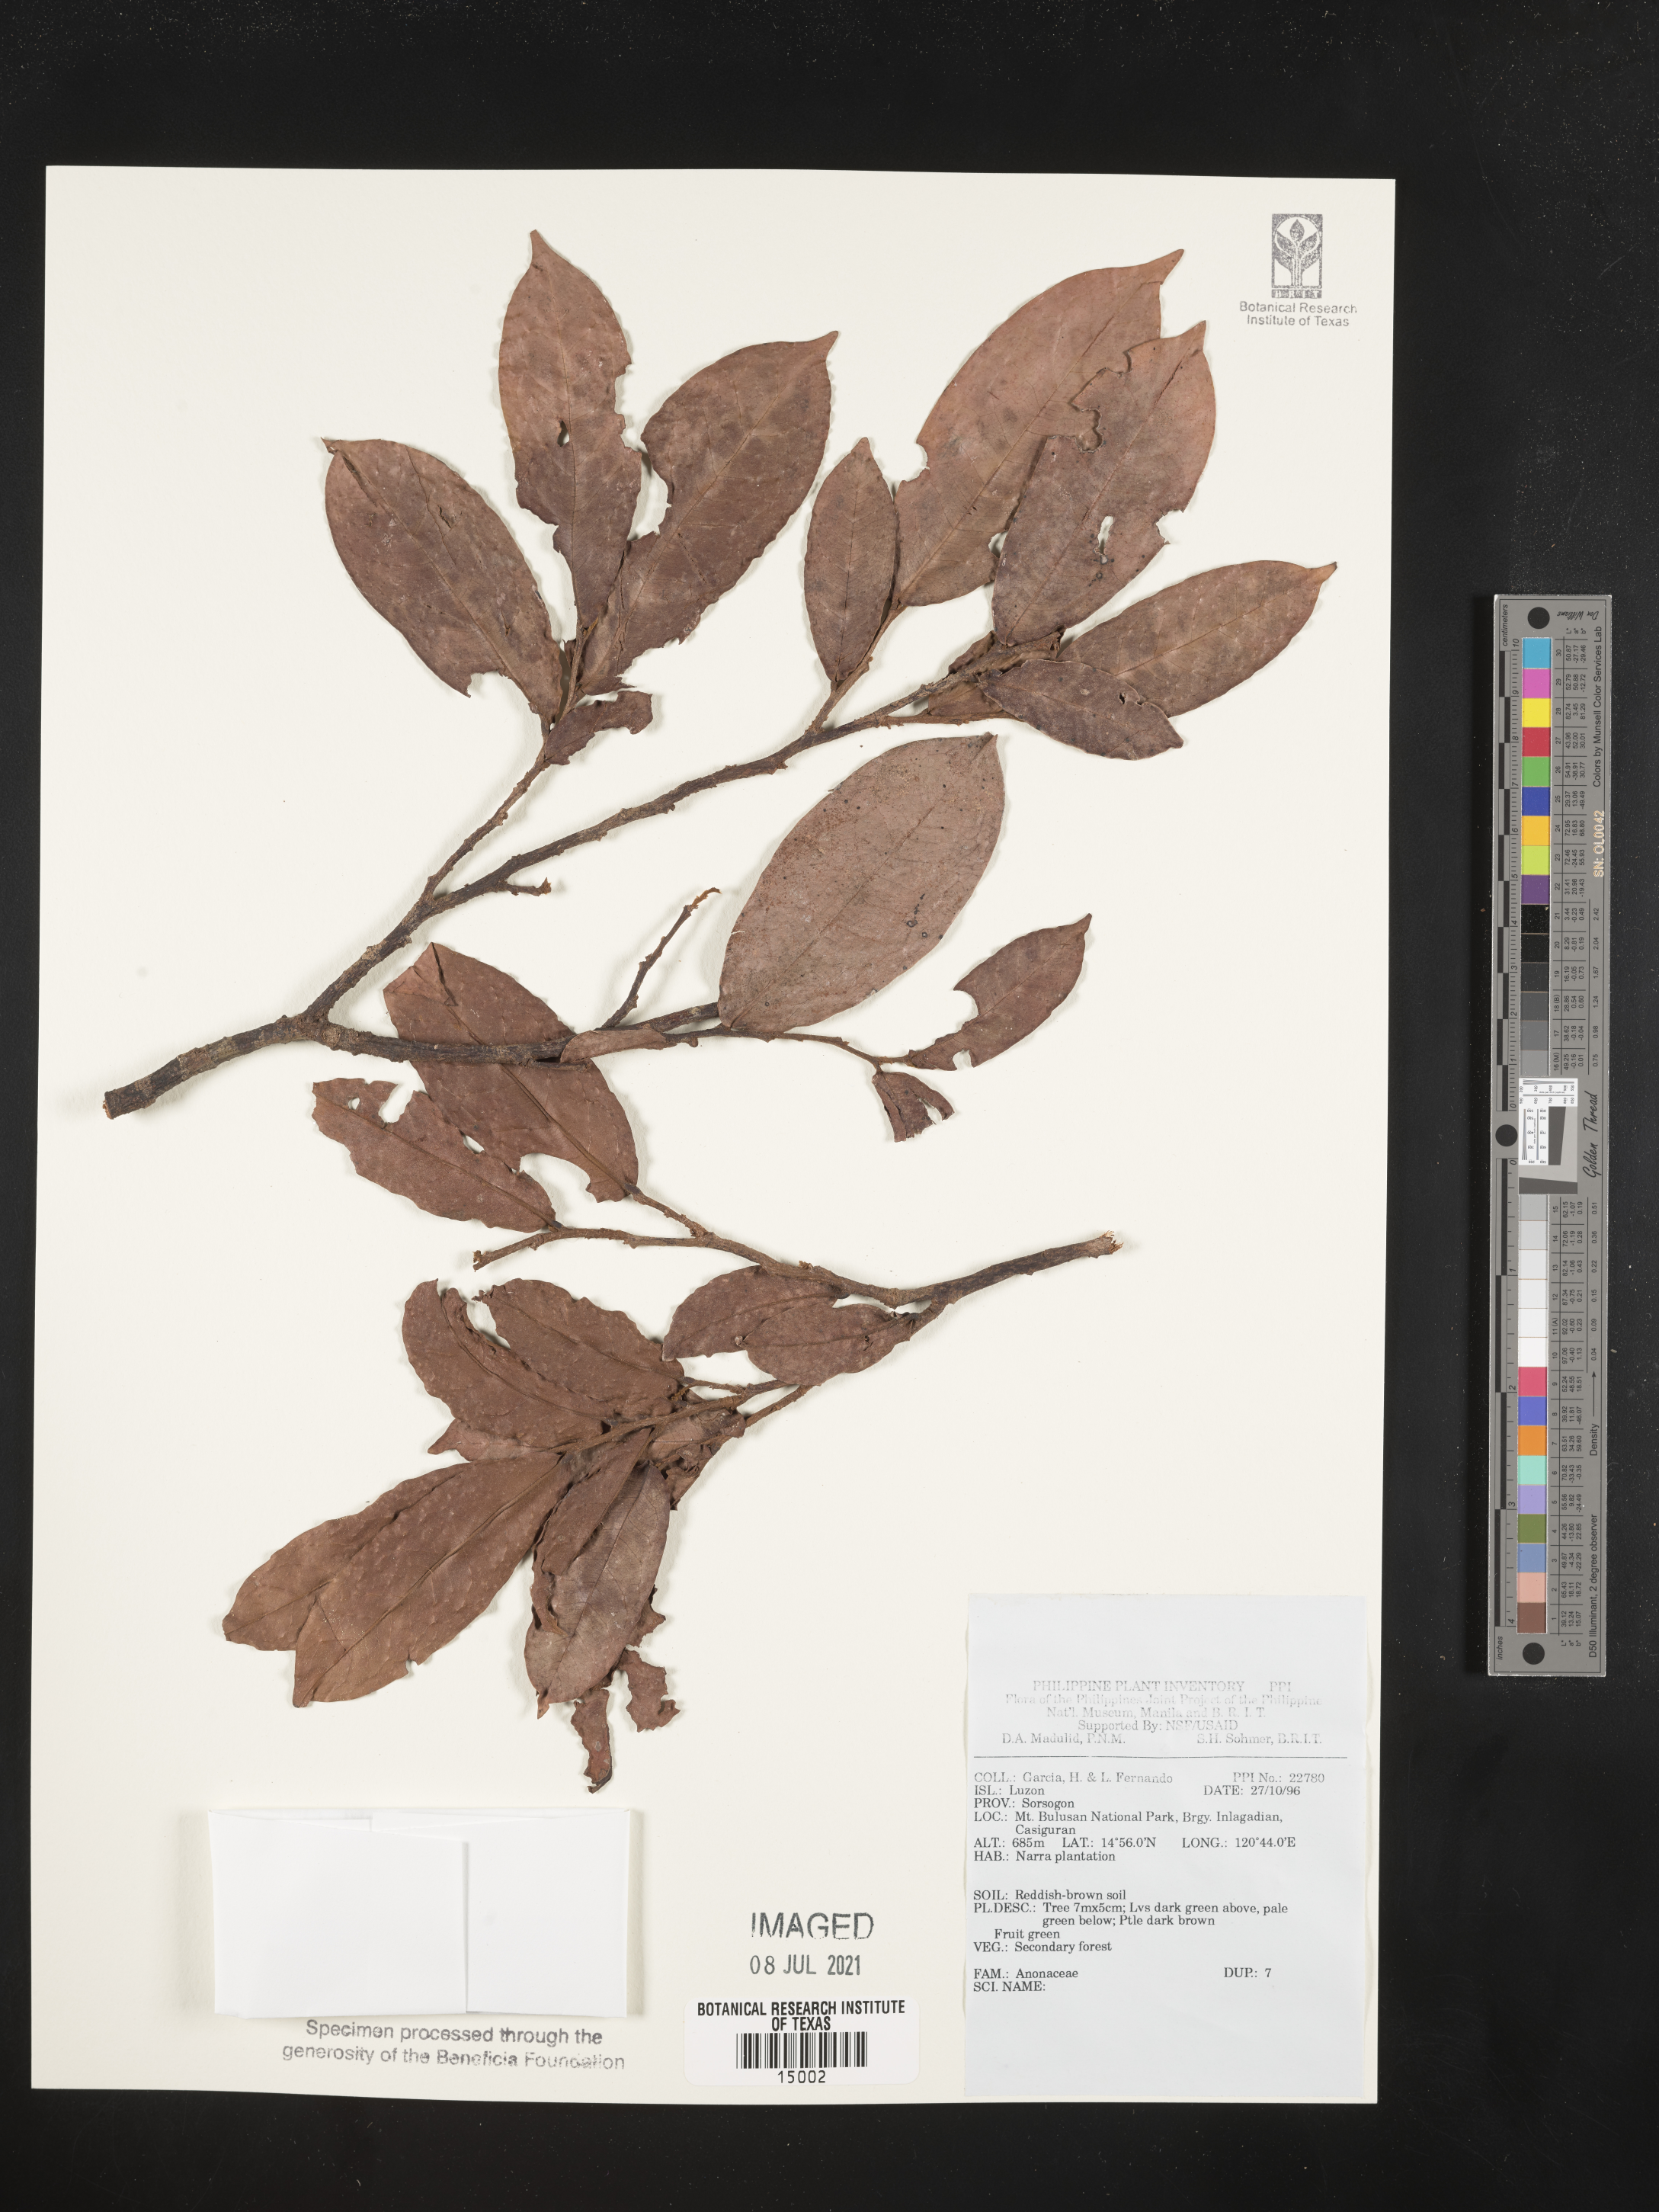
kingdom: Plantae
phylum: Tracheophyta
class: Magnoliopsida
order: Magnoliales
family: Annonaceae
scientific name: Annonaceae
